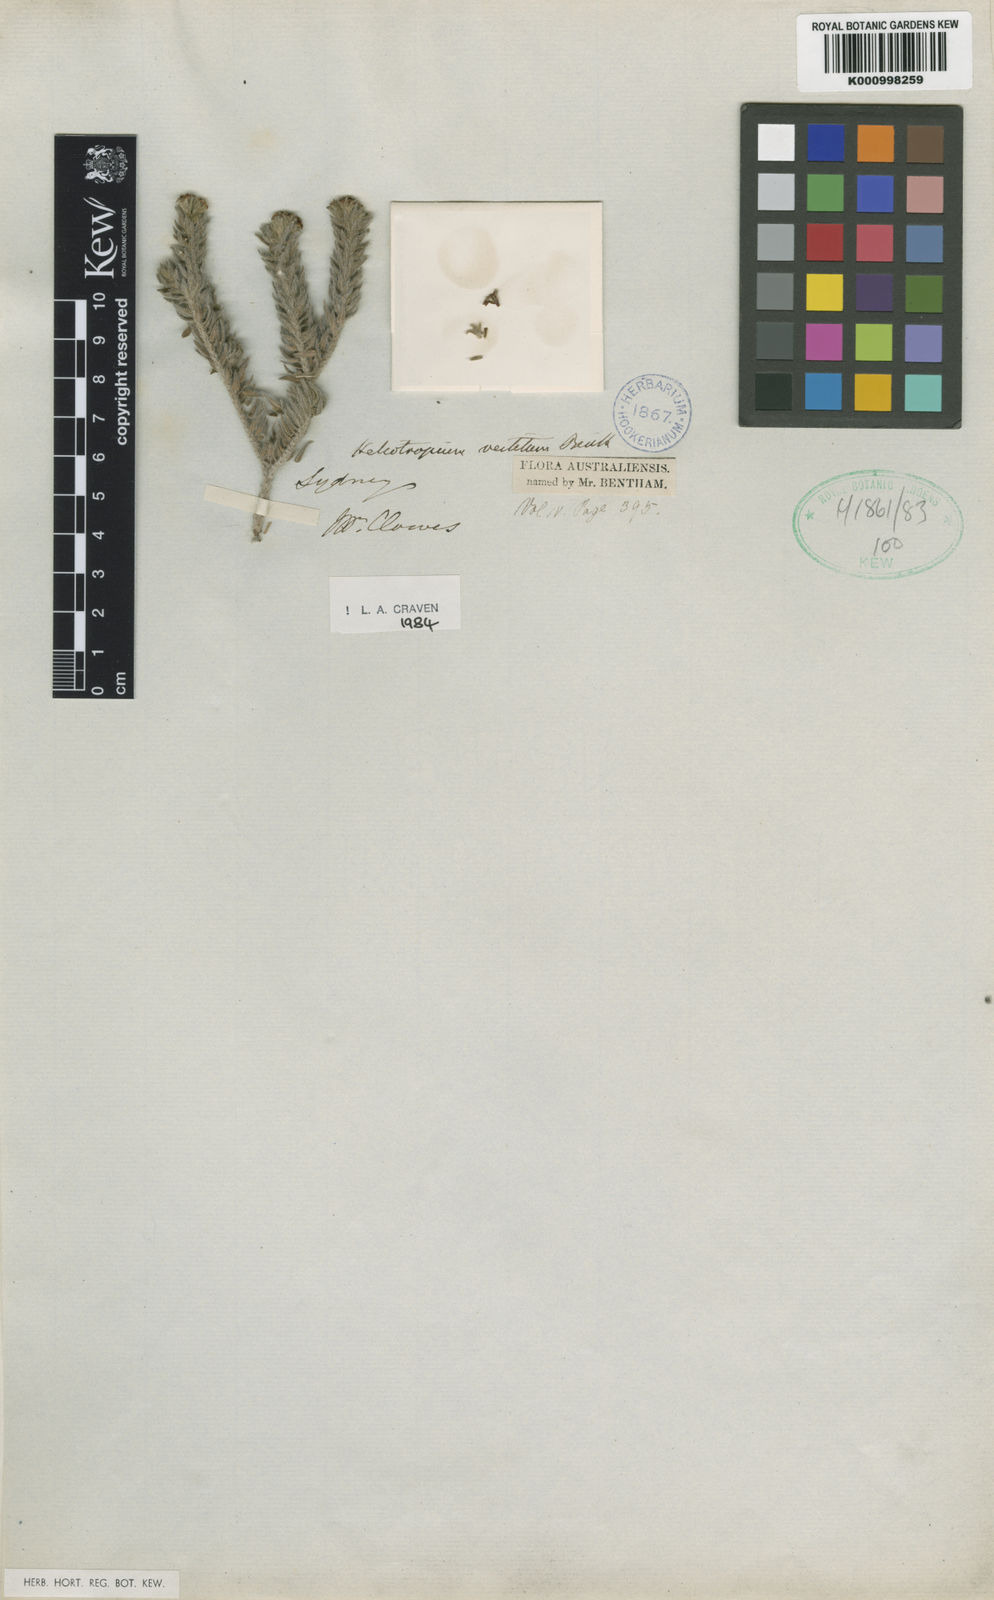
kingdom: Plantae
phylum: Tracheophyta
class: Magnoliopsida
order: Boraginales
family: Heliotropiaceae
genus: Euploca
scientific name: Euploca vestita
